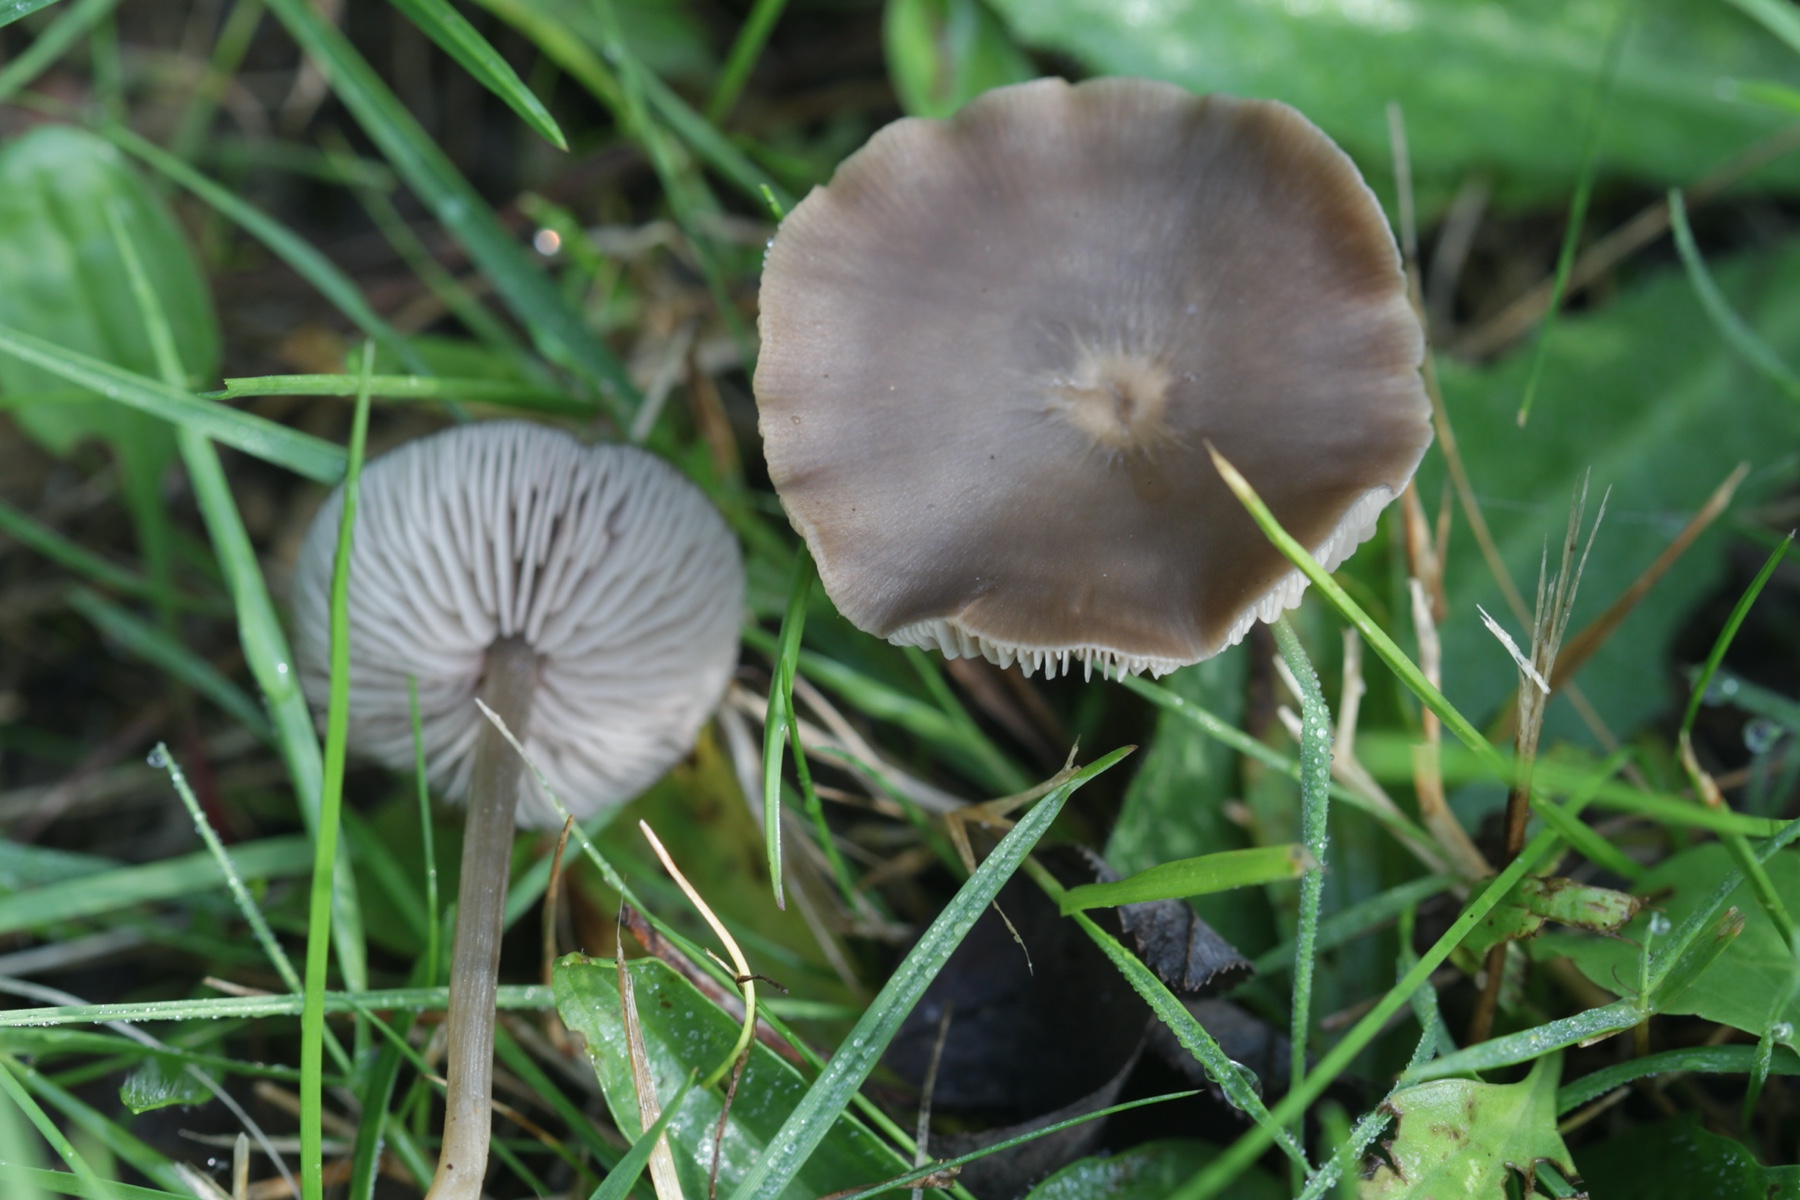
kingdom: Fungi
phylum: Basidiomycota
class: Agaricomycetes
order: Agaricales
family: Entolomataceae
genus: Entoloma
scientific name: Entoloma
